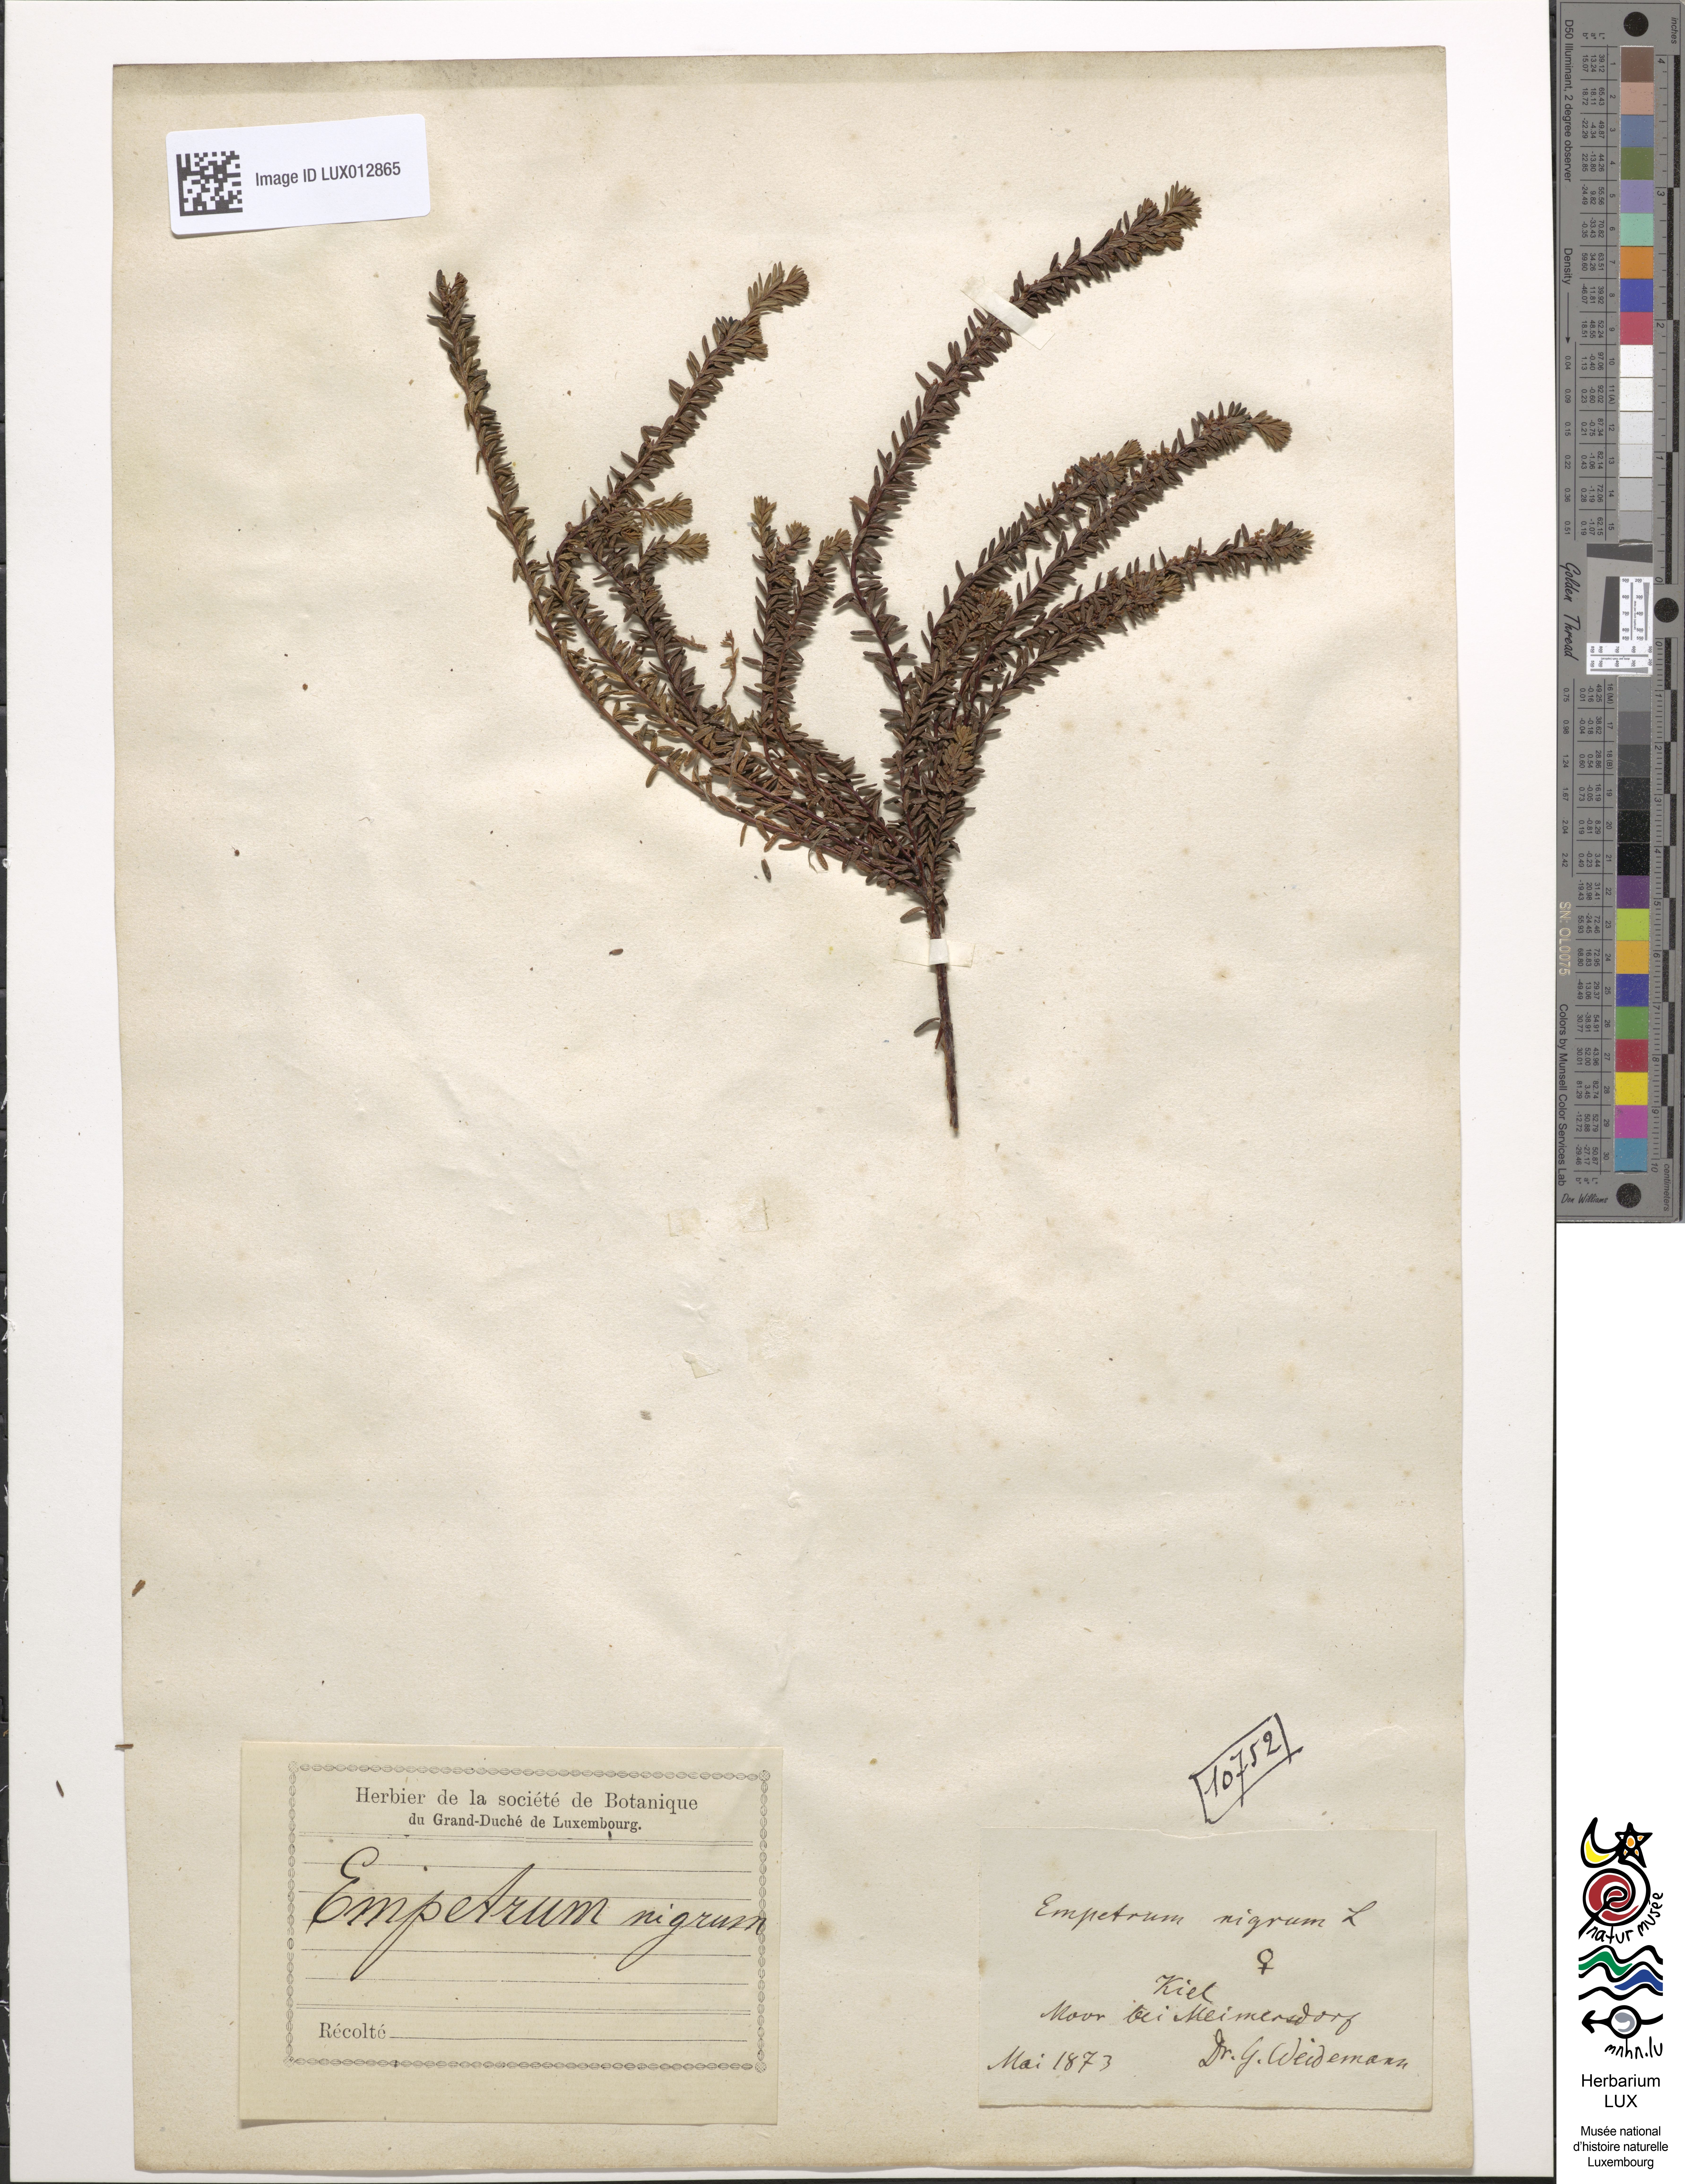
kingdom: Plantae
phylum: Tracheophyta
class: Magnoliopsida
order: Ericales
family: Ericaceae
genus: Empetrum
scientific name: Empetrum nigrum
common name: Black crowberry
